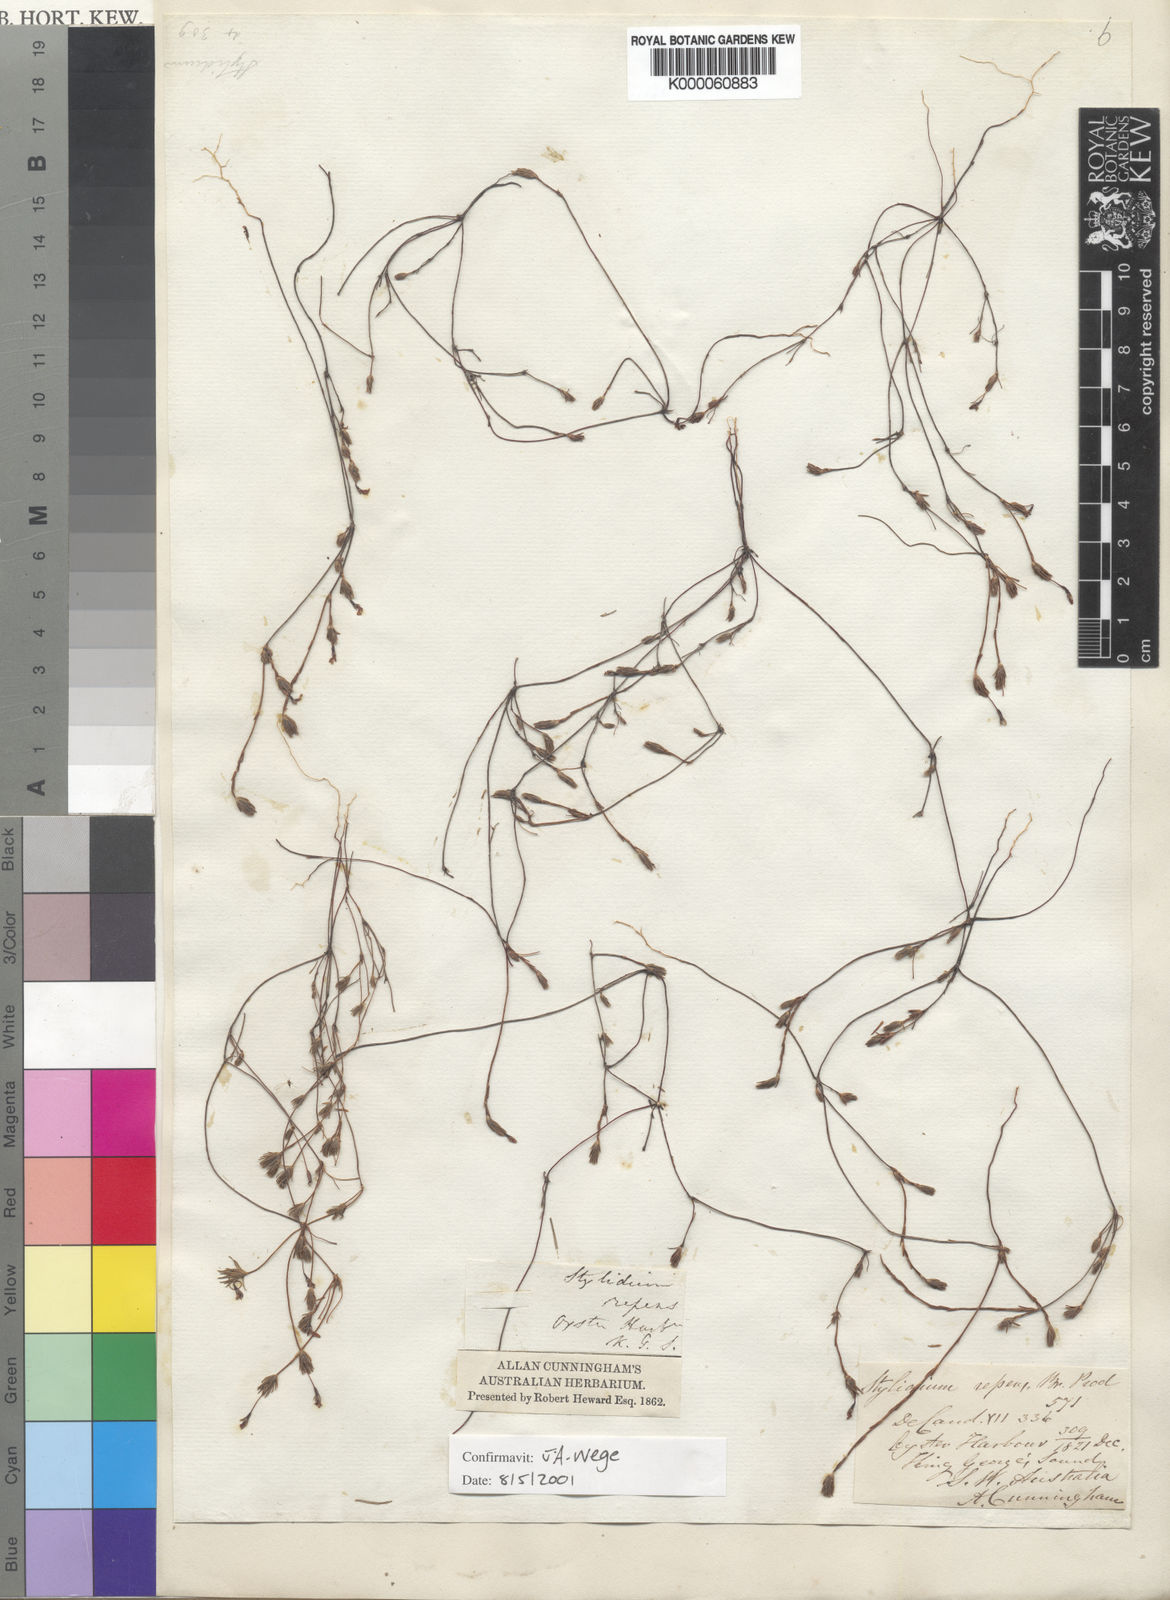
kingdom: Plantae
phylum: Tracheophyta
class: Magnoliopsida
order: Asterales
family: Stylidiaceae
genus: Stylidium
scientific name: Stylidium repens
